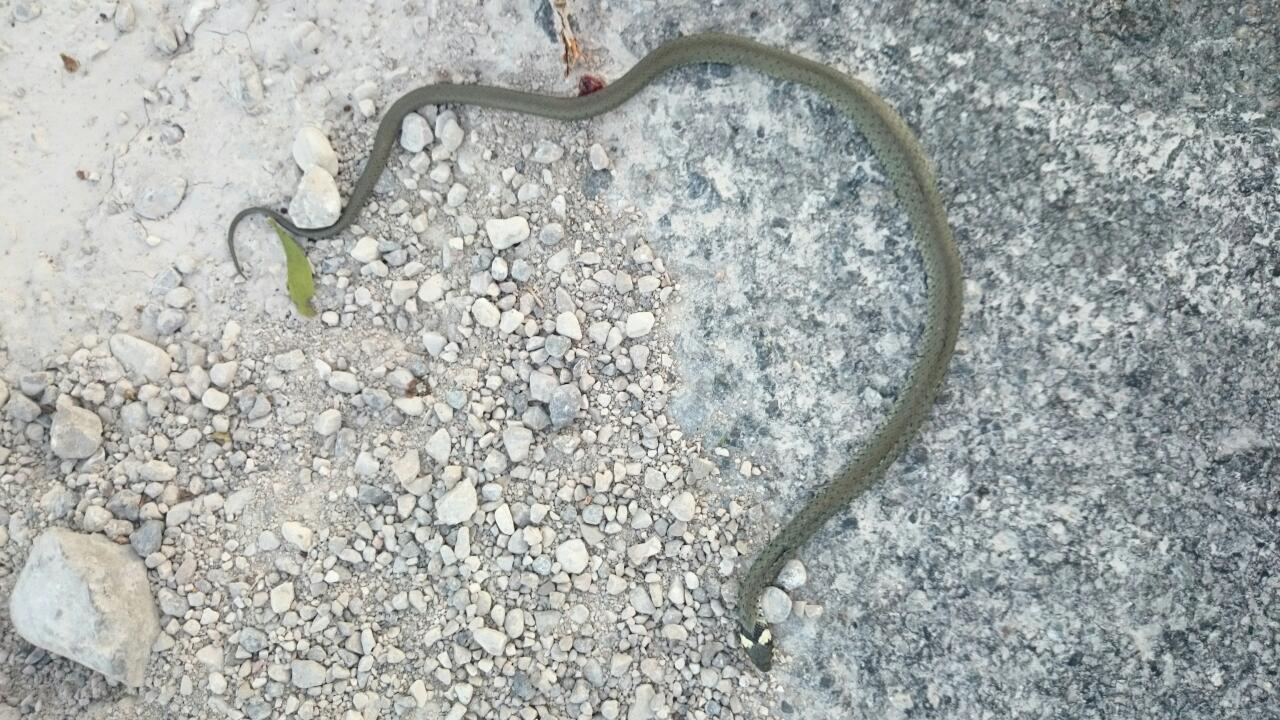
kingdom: Animalia
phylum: Chordata
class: Squamata
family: Colubridae
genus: Natrix
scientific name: Natrix natrix
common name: Grass snake
